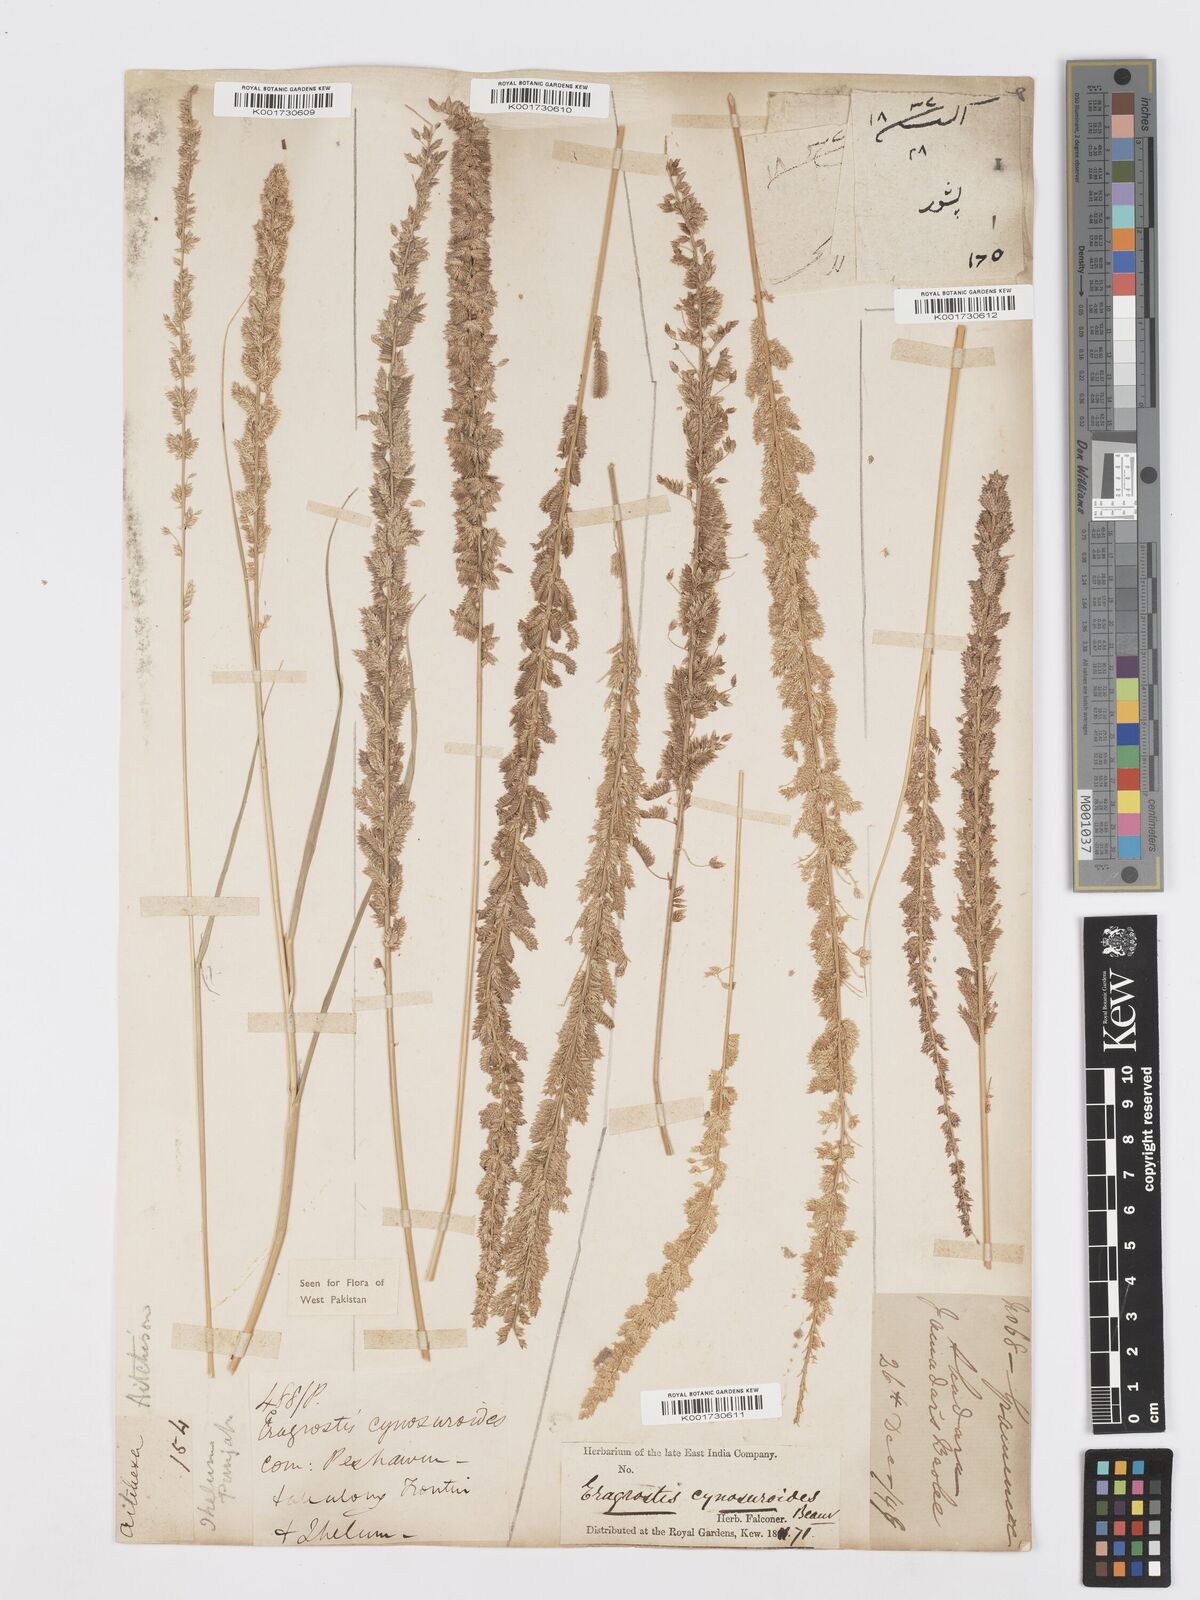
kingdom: Plantae
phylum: Tracheophyta
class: Liliopsida
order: Poales
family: Poaceae
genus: Desmostachya
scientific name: Desmostachya bipinnata
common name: Crowfoot grass
